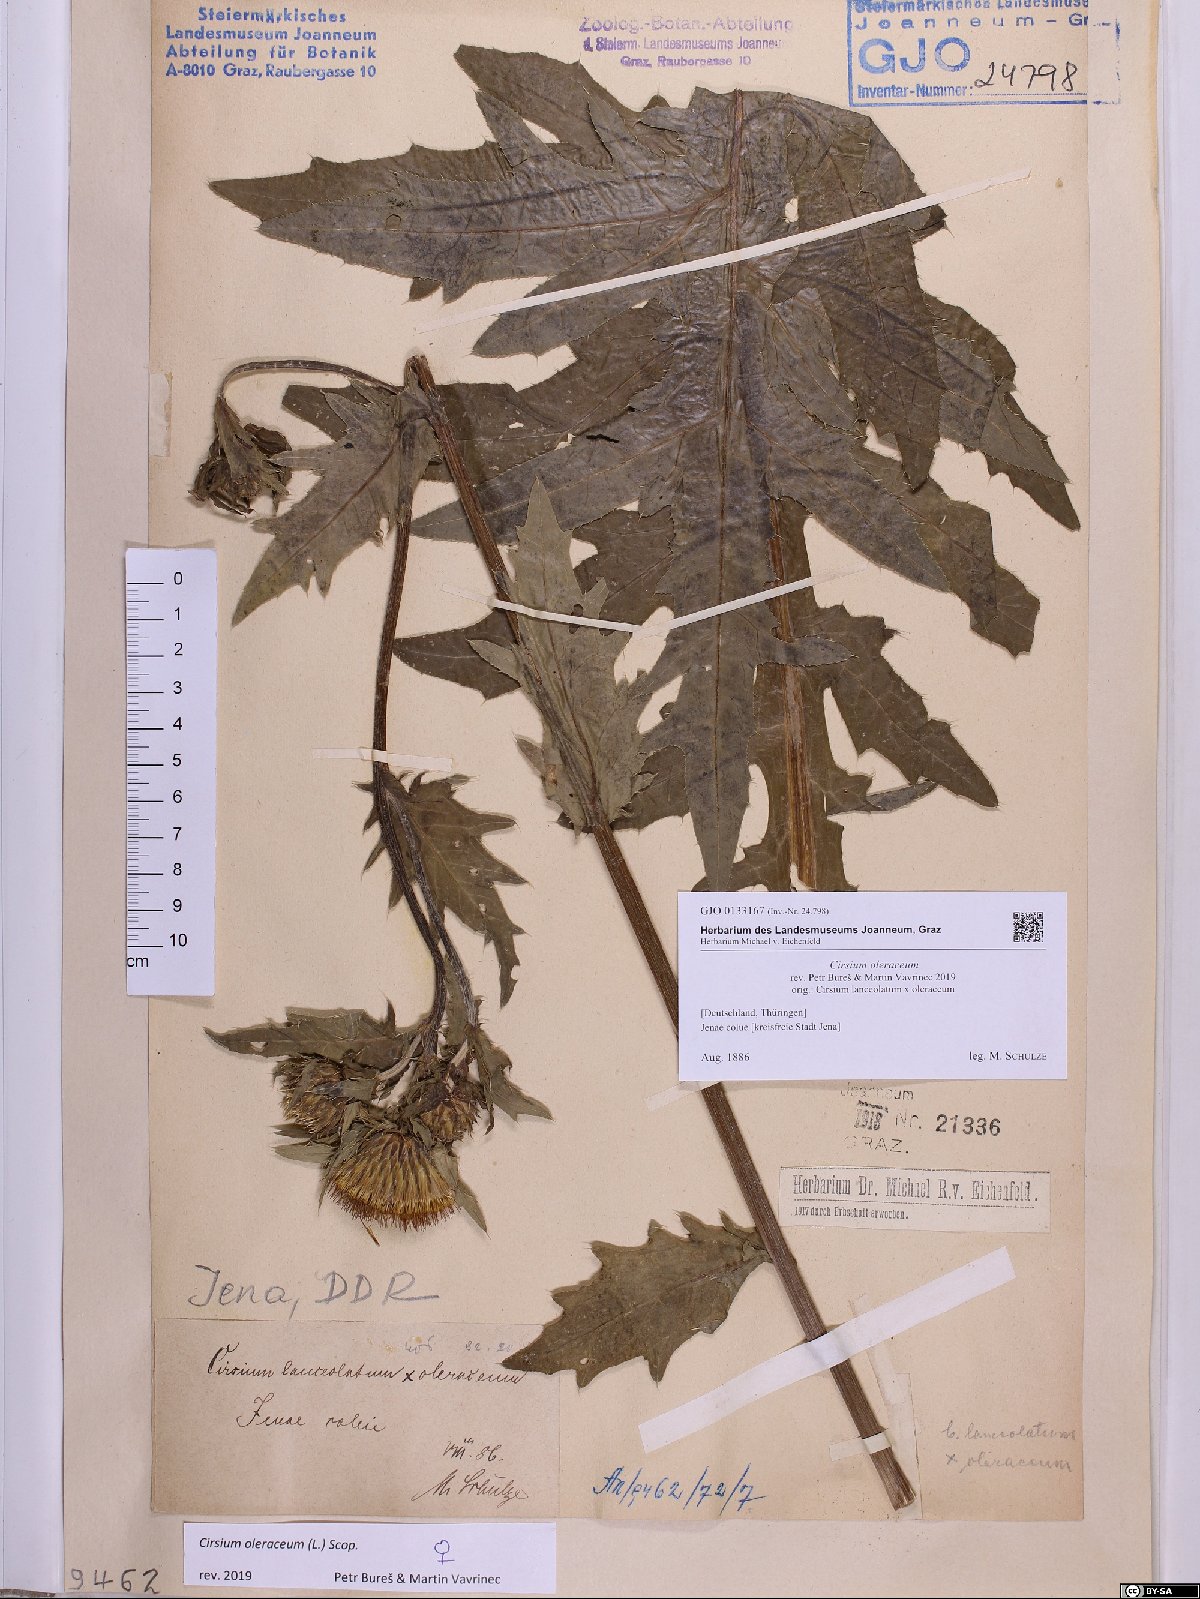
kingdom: Plantae
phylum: Tracheophyta
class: Magnoliopsida
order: Asterales
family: Asteraceae
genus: Cirsium
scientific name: Cirsium oleraceum
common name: Cabbage thistle
